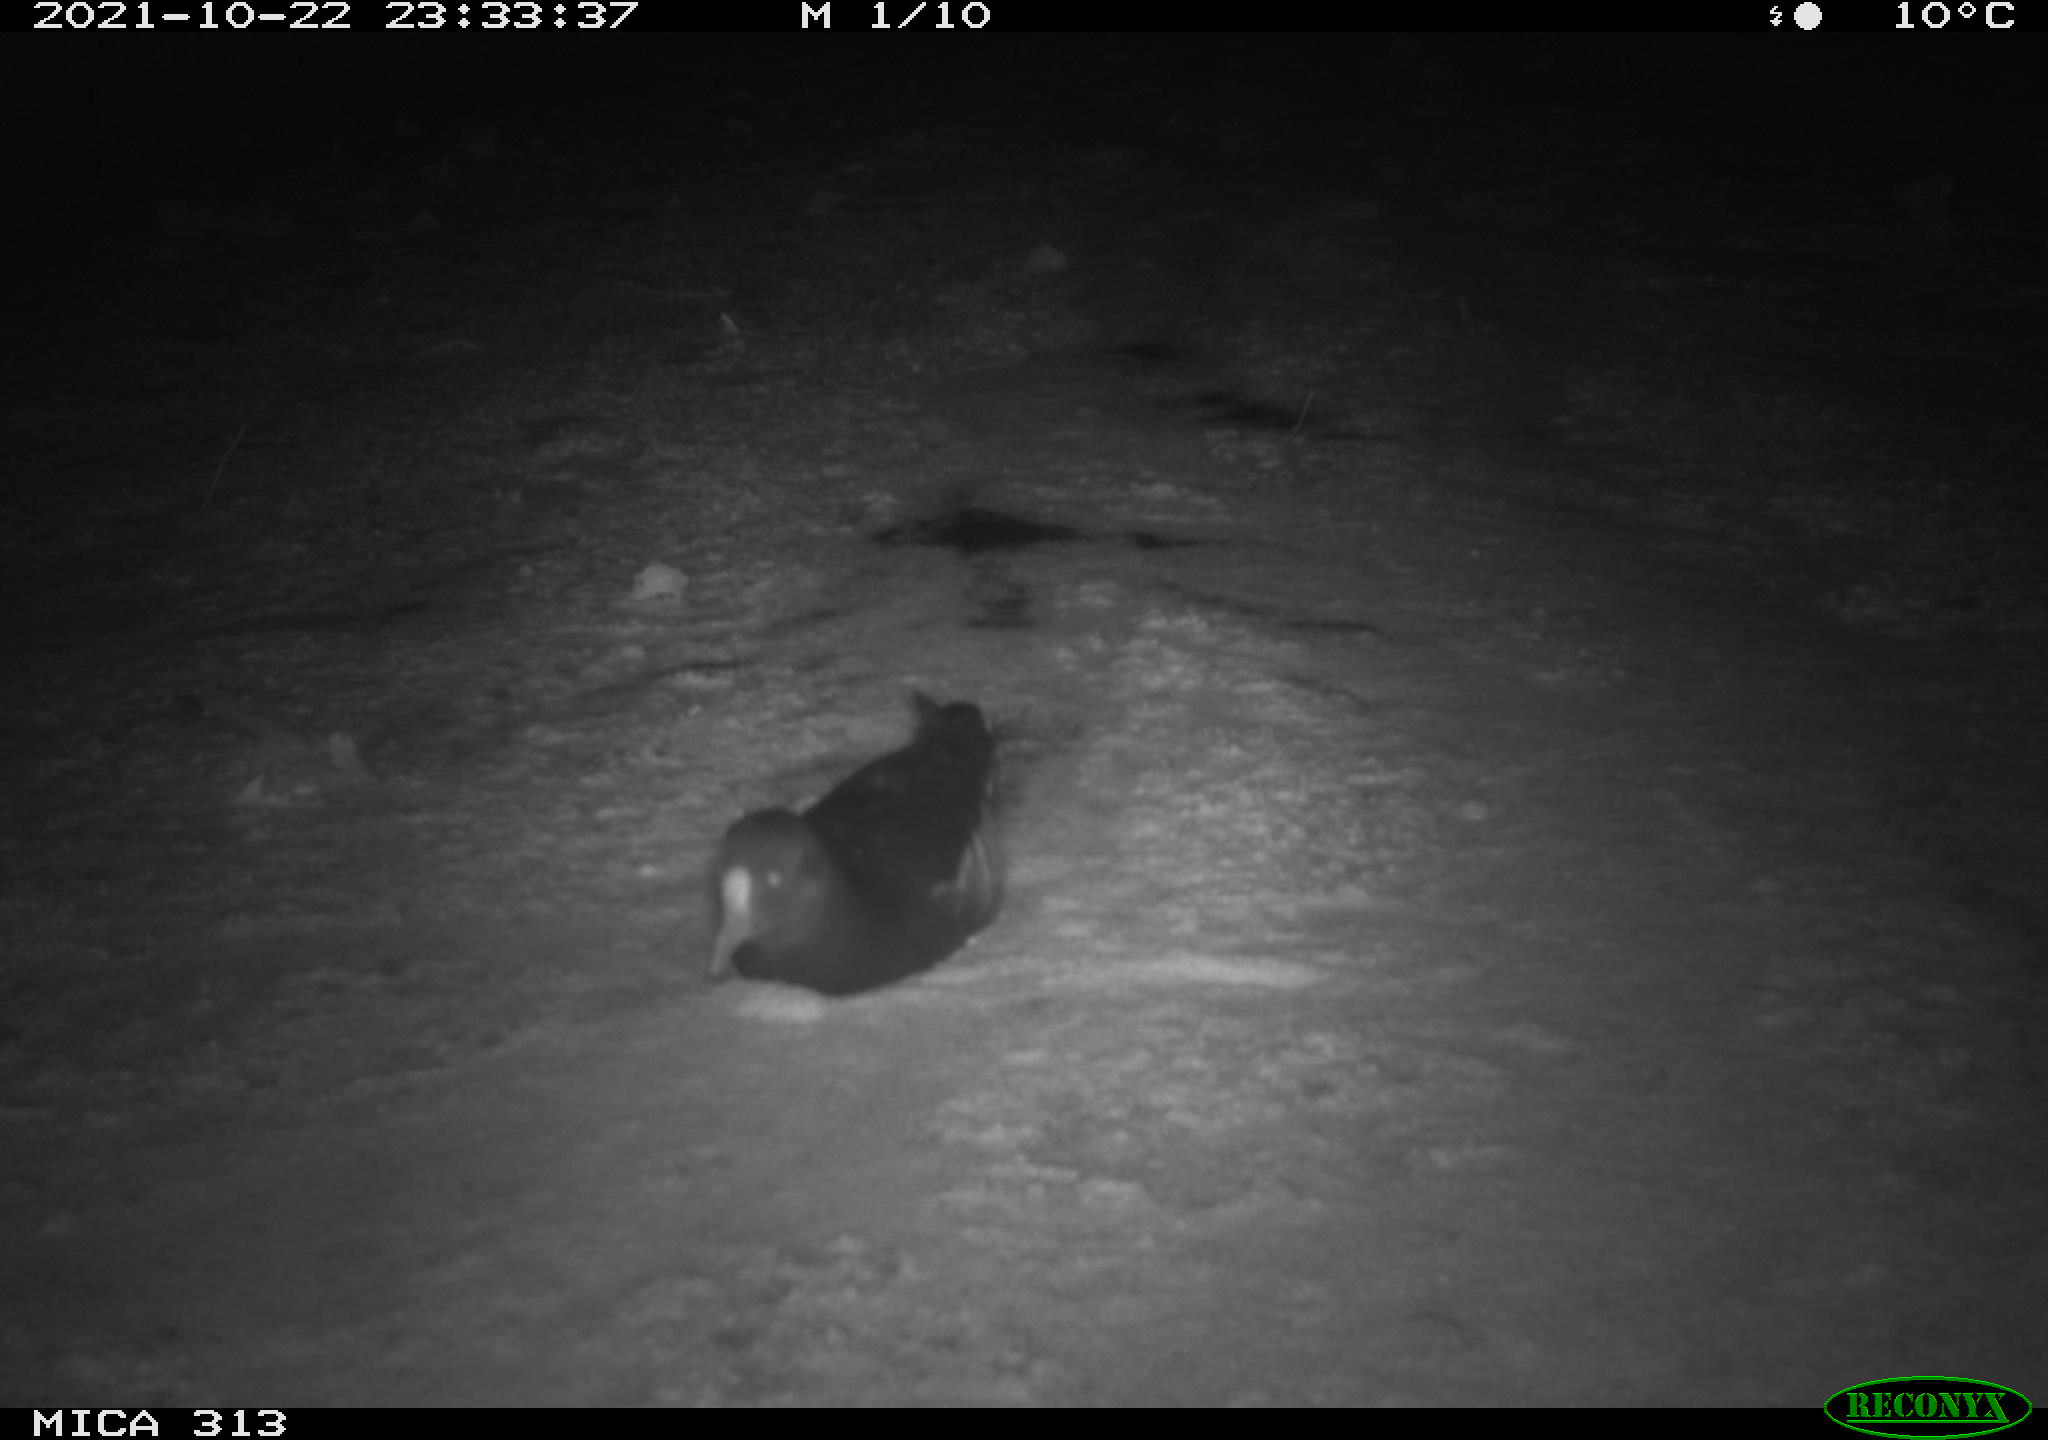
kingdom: Animalia
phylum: Chordata
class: Aves
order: Gruiformes
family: Rallidae
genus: Gallinula
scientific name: Gallinula chloropus
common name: Common moorhen
